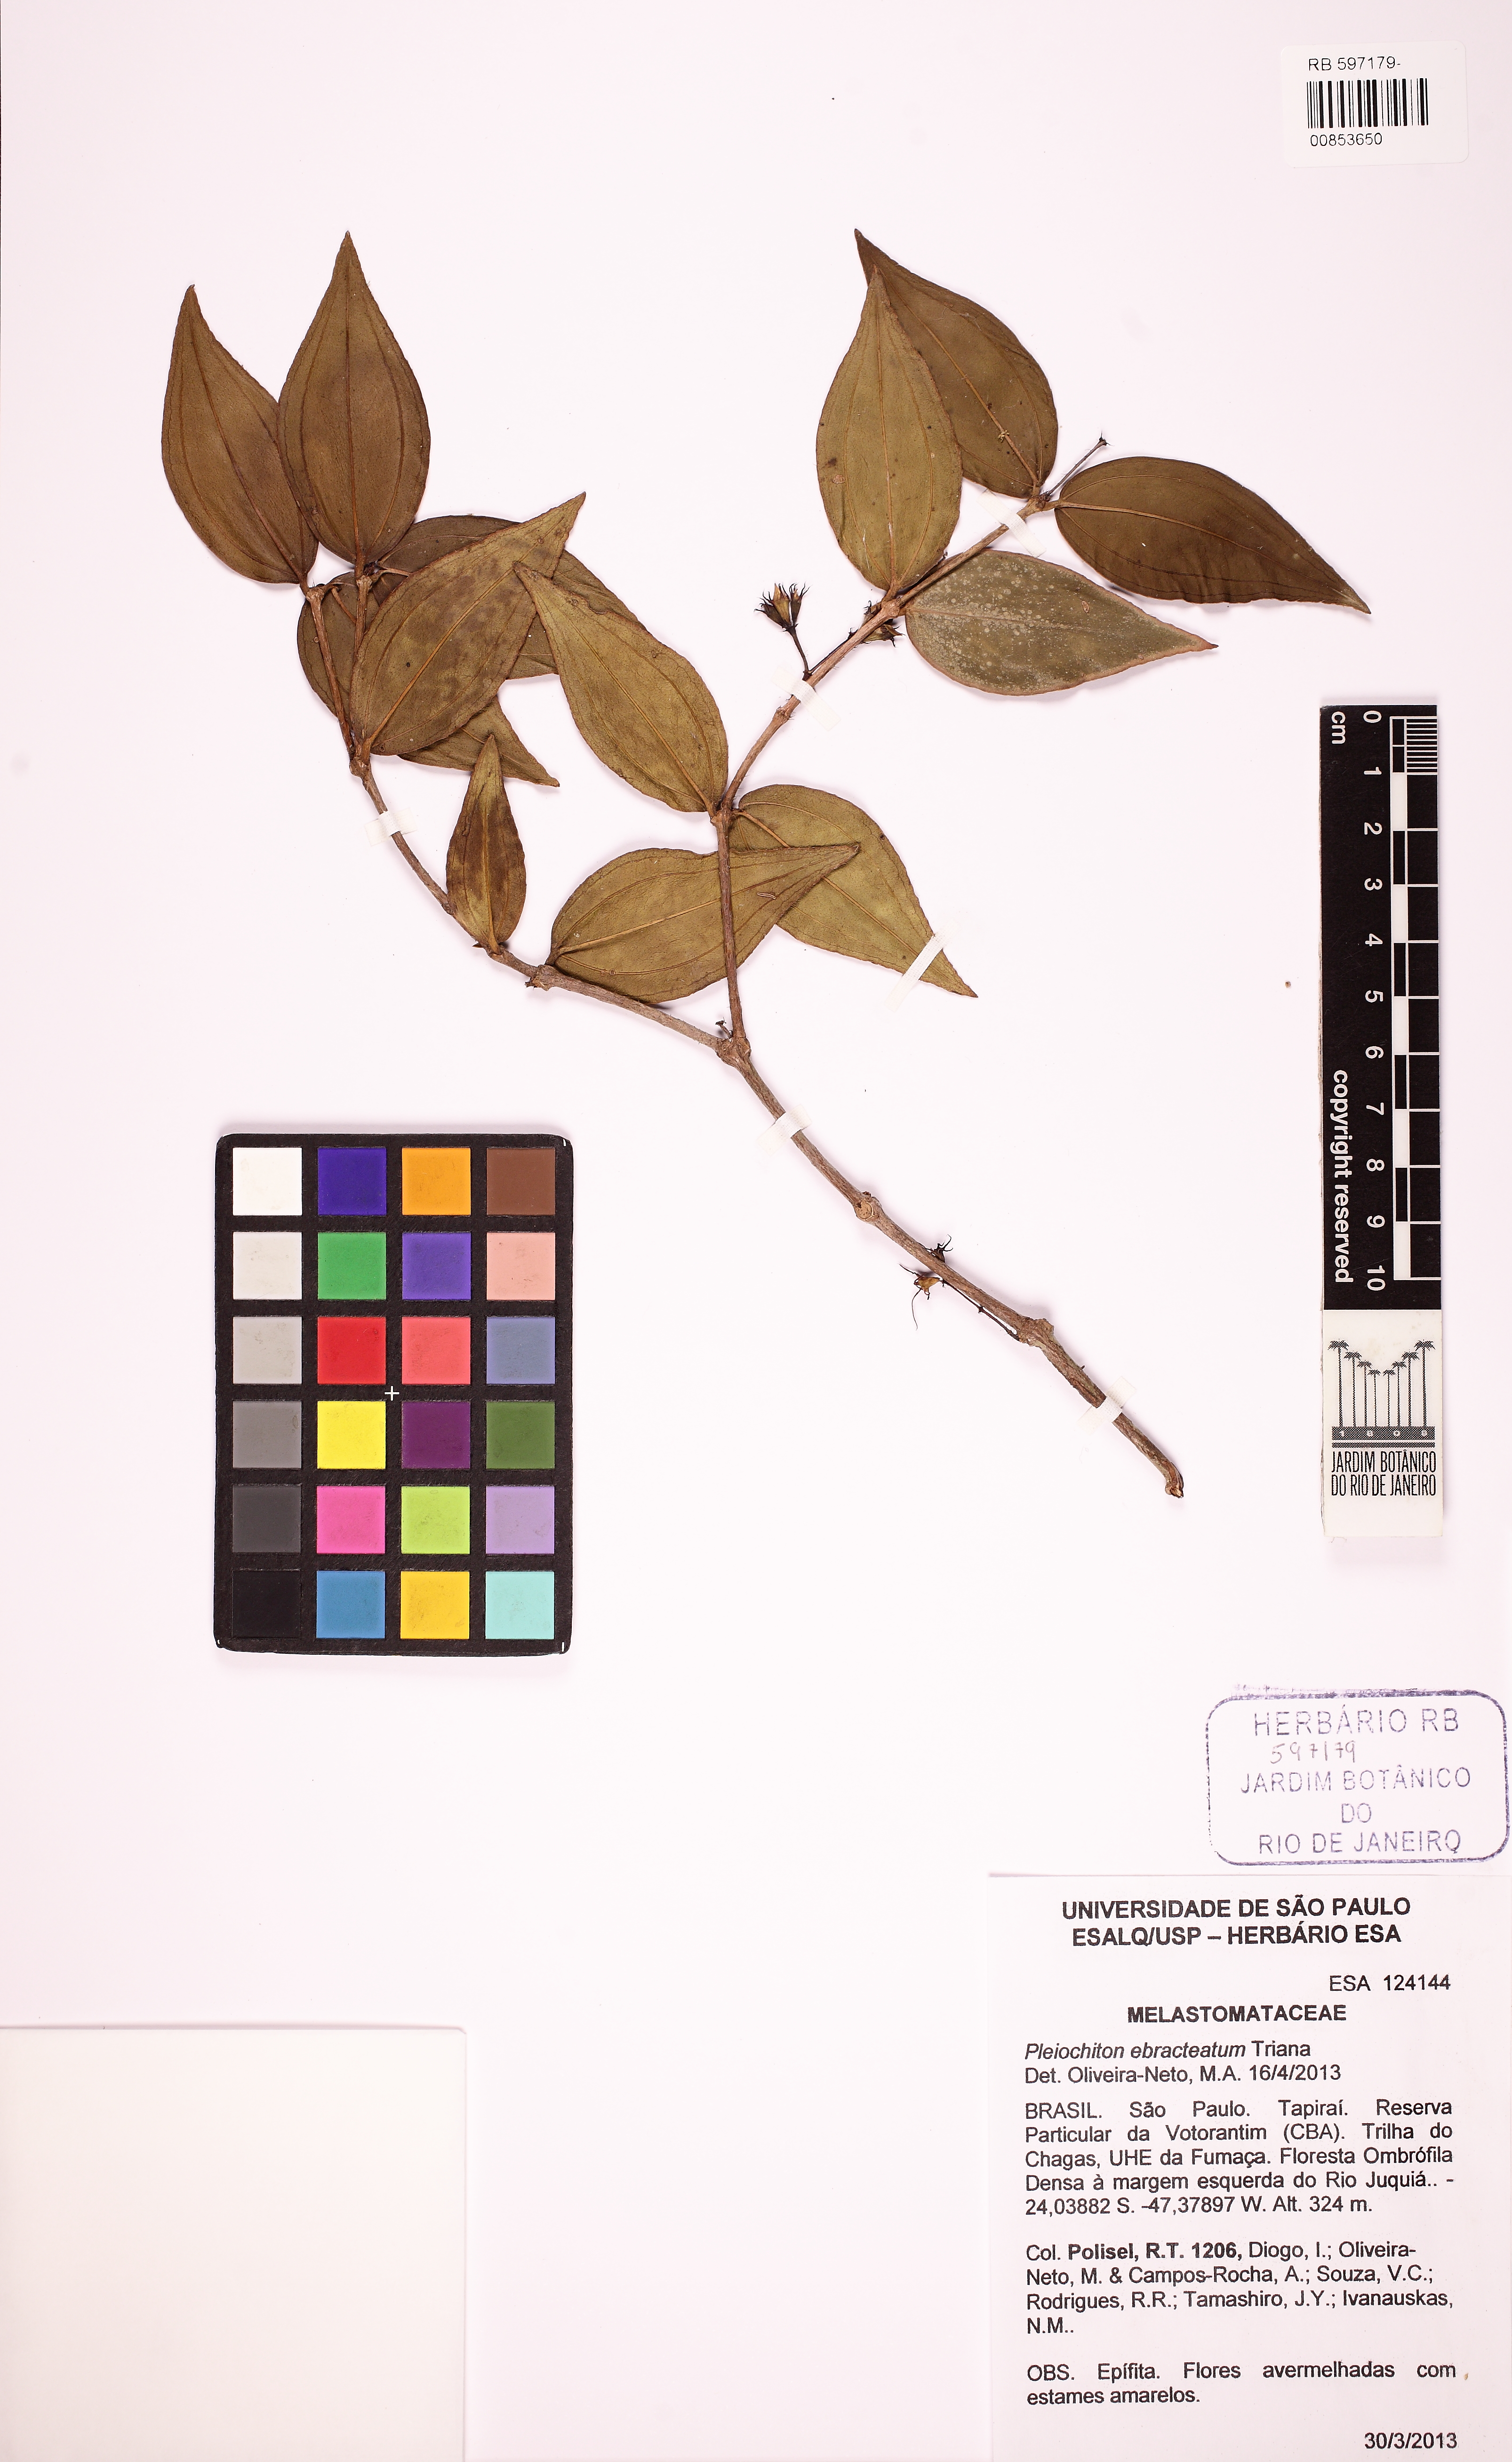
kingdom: Plantae
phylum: Tracheophyta
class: Magnoliopsida
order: Myrtales
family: Melastomataceae
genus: Miconia
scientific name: Miconia ebracteata
